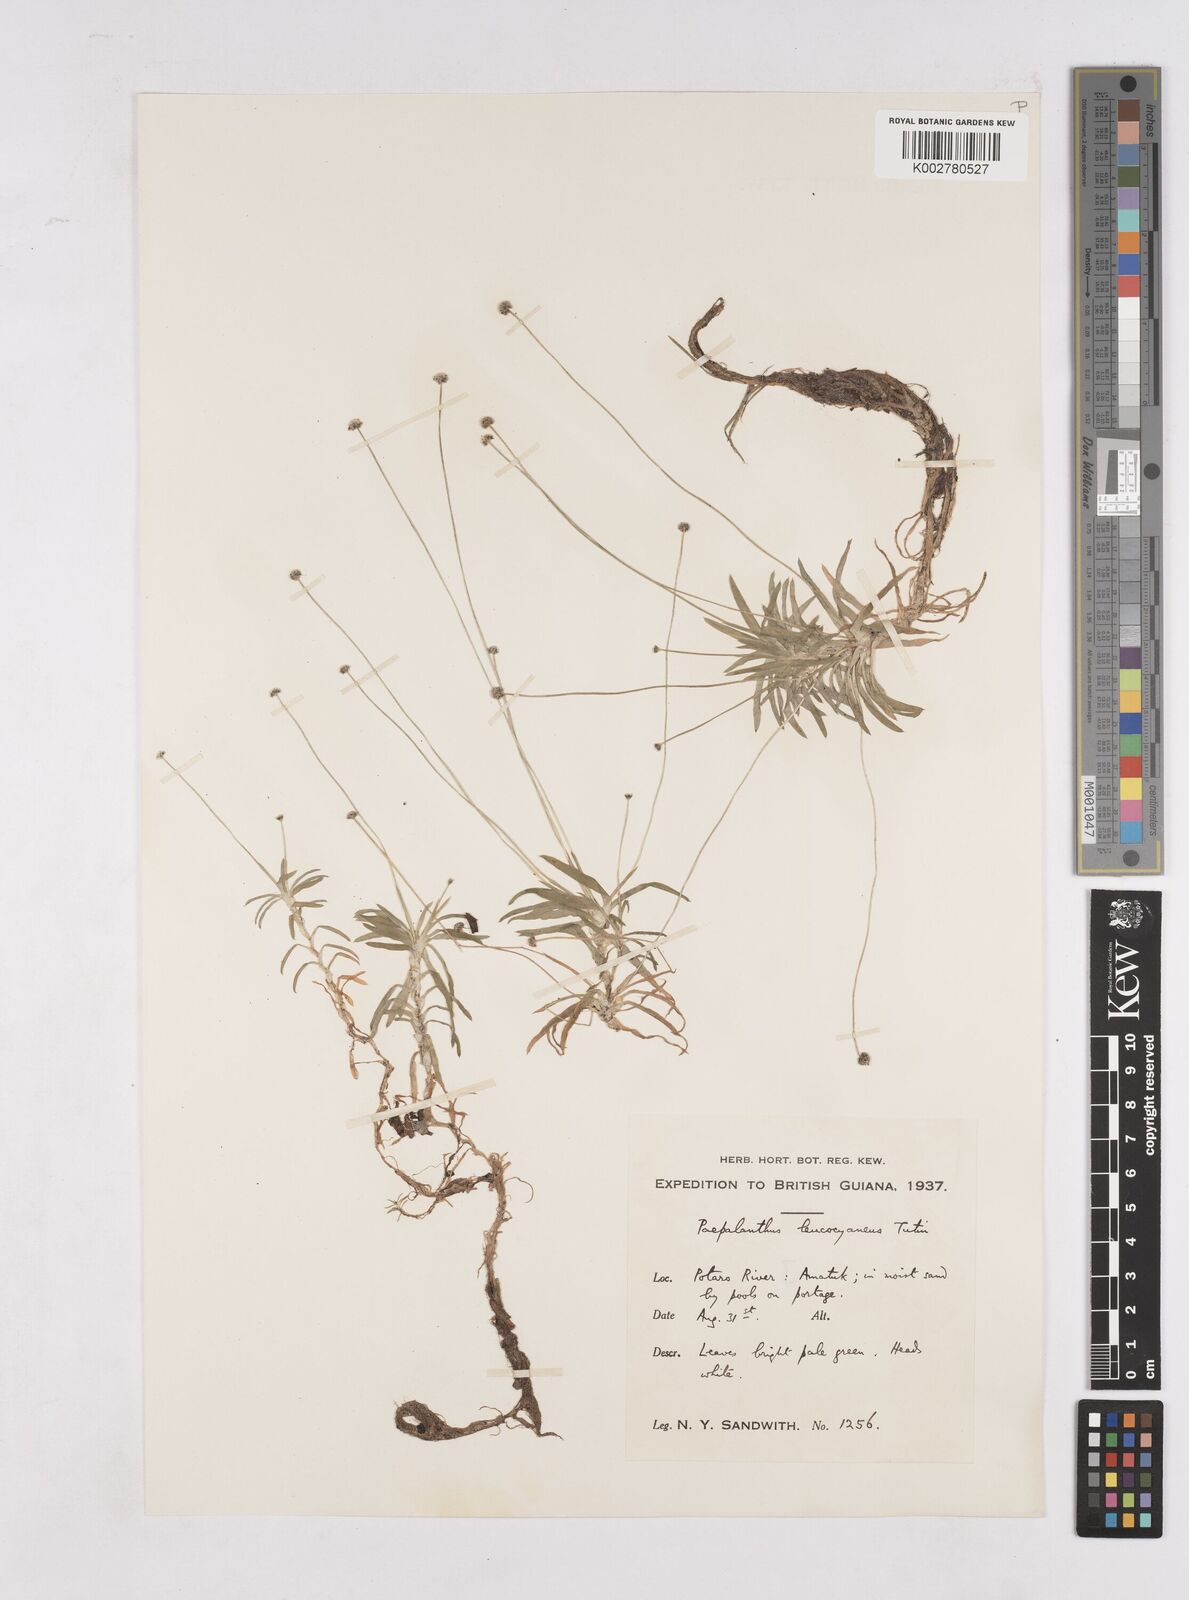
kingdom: Plantae
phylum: Tracheophyta
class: Liliopsida
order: Poales
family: Eriocaulaceae
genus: Paepalanthus
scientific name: Paepalanthus oyapockensis
